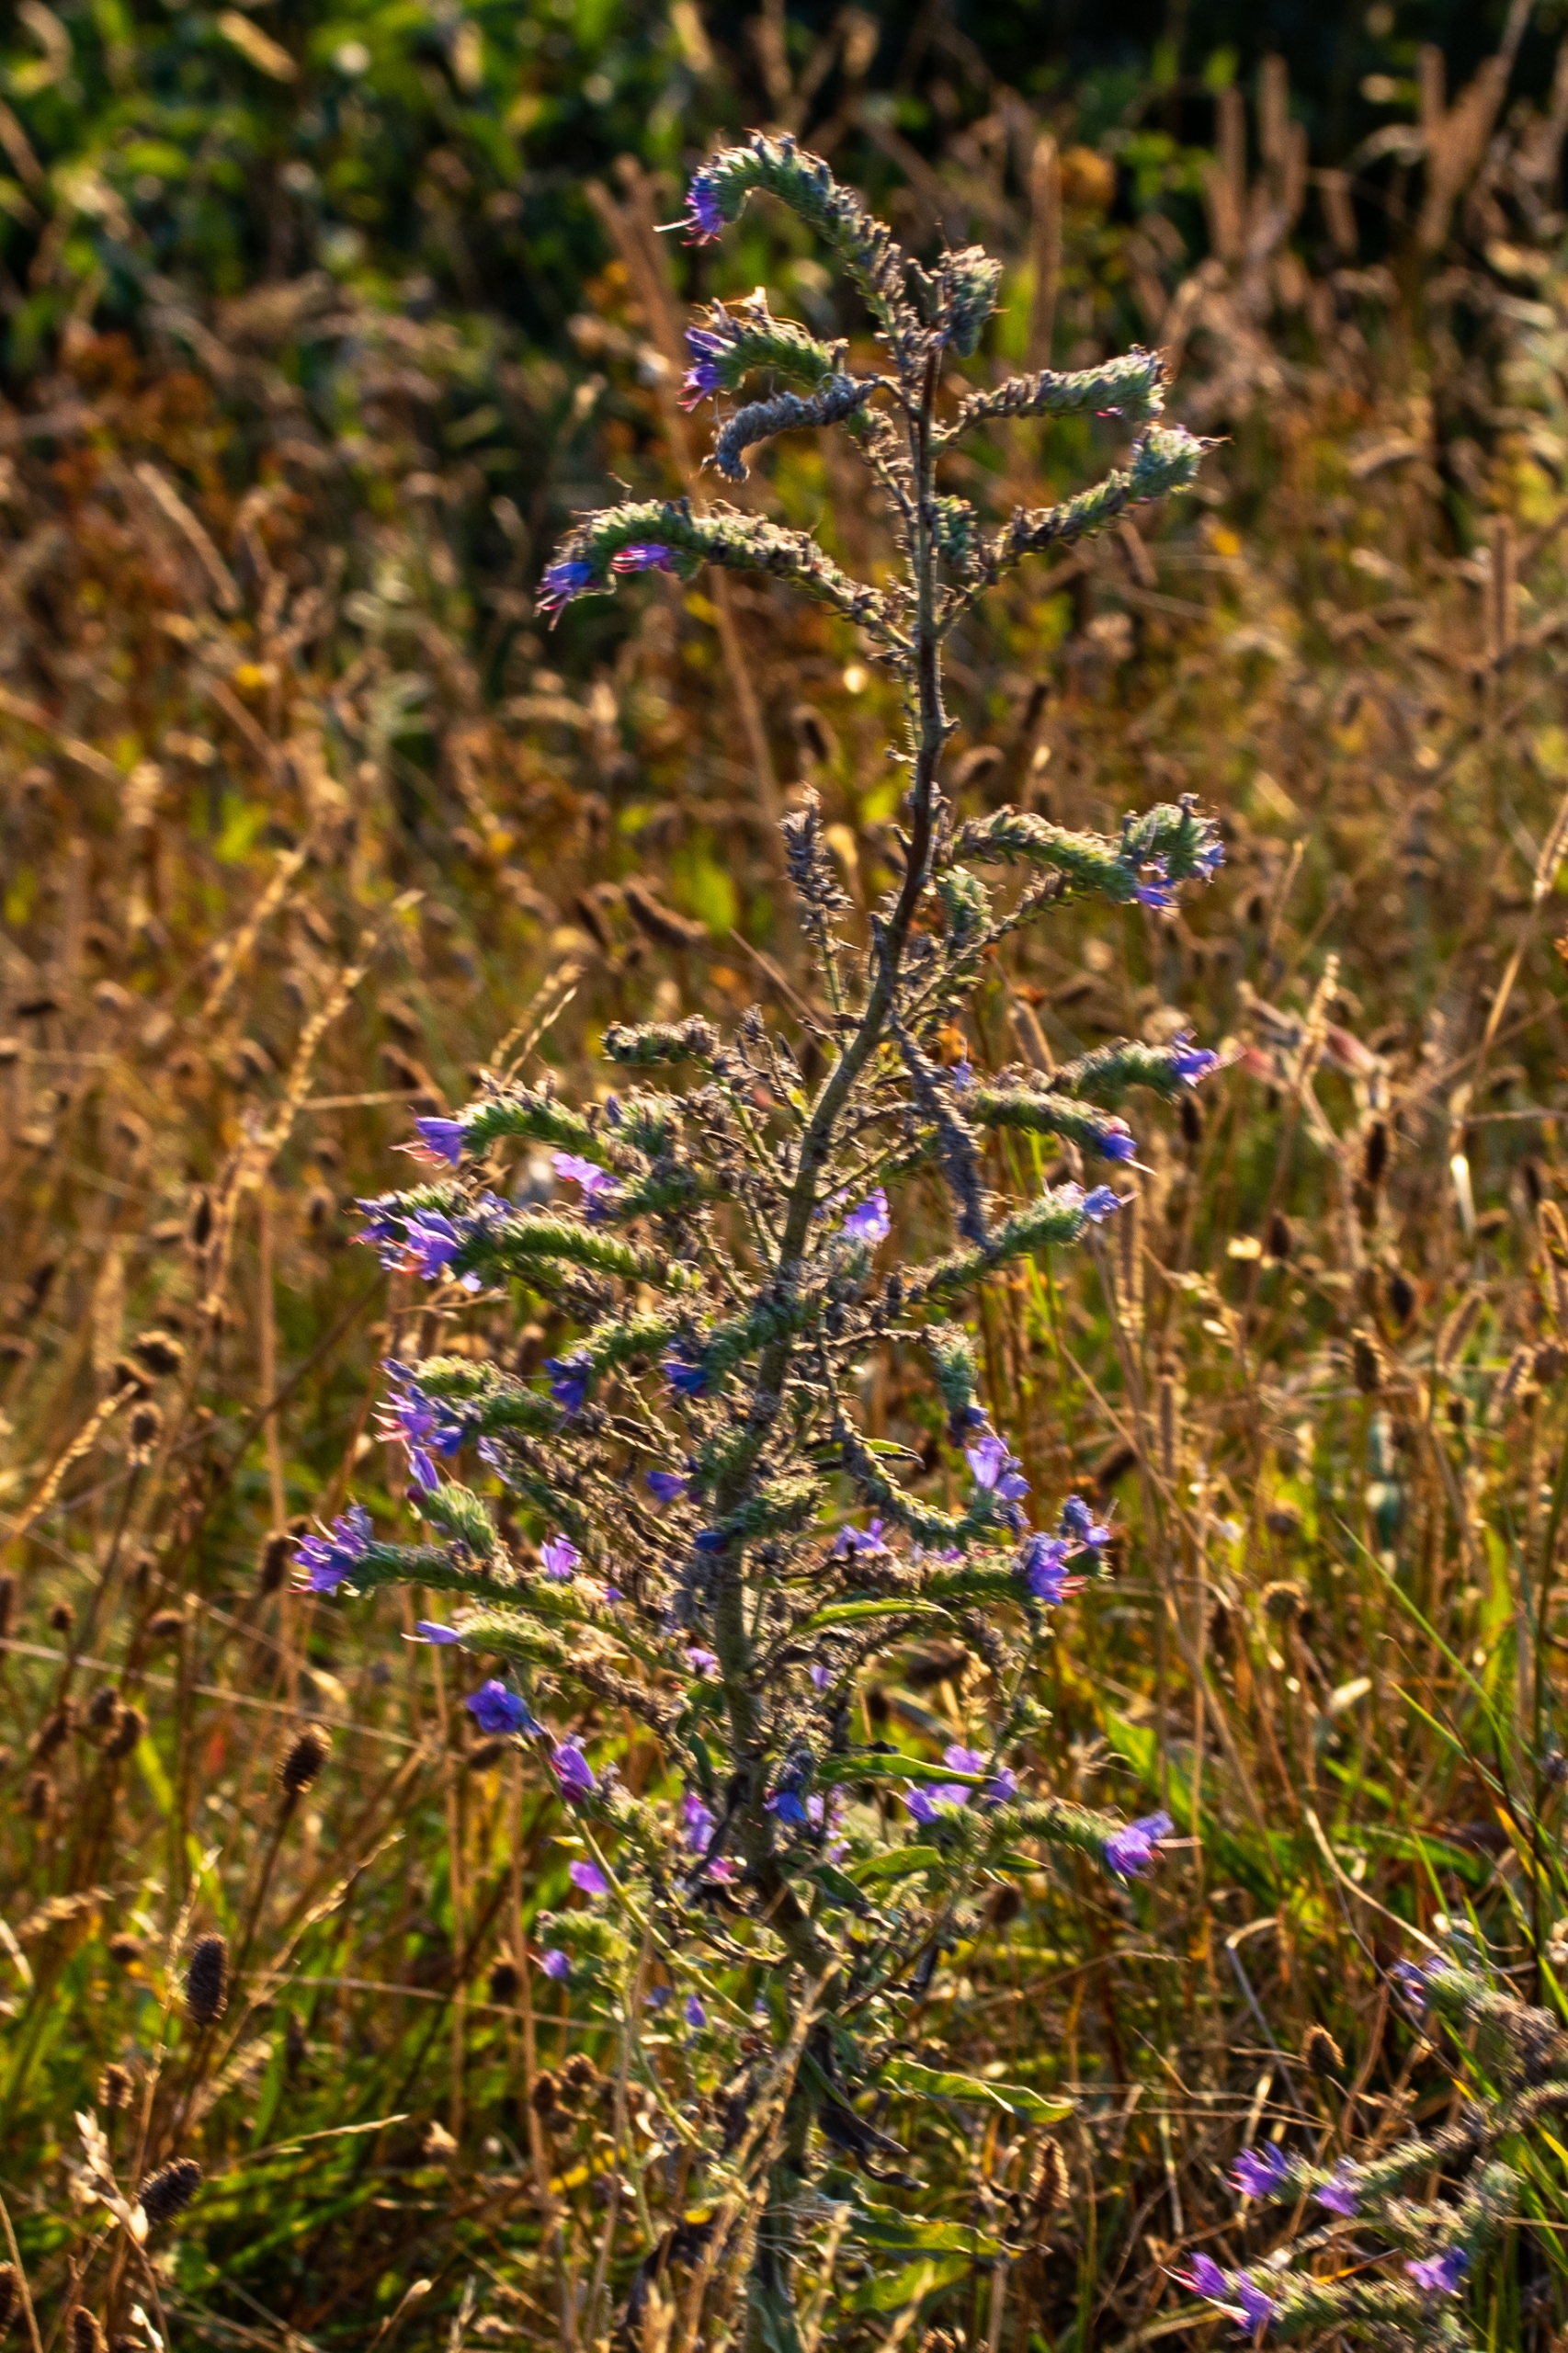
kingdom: Plantae
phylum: Tracheophyta
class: Magnoliopsida
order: Boraginales
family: Boraginaceae
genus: Echium
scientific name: Echium vulgare
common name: Slangehoved
